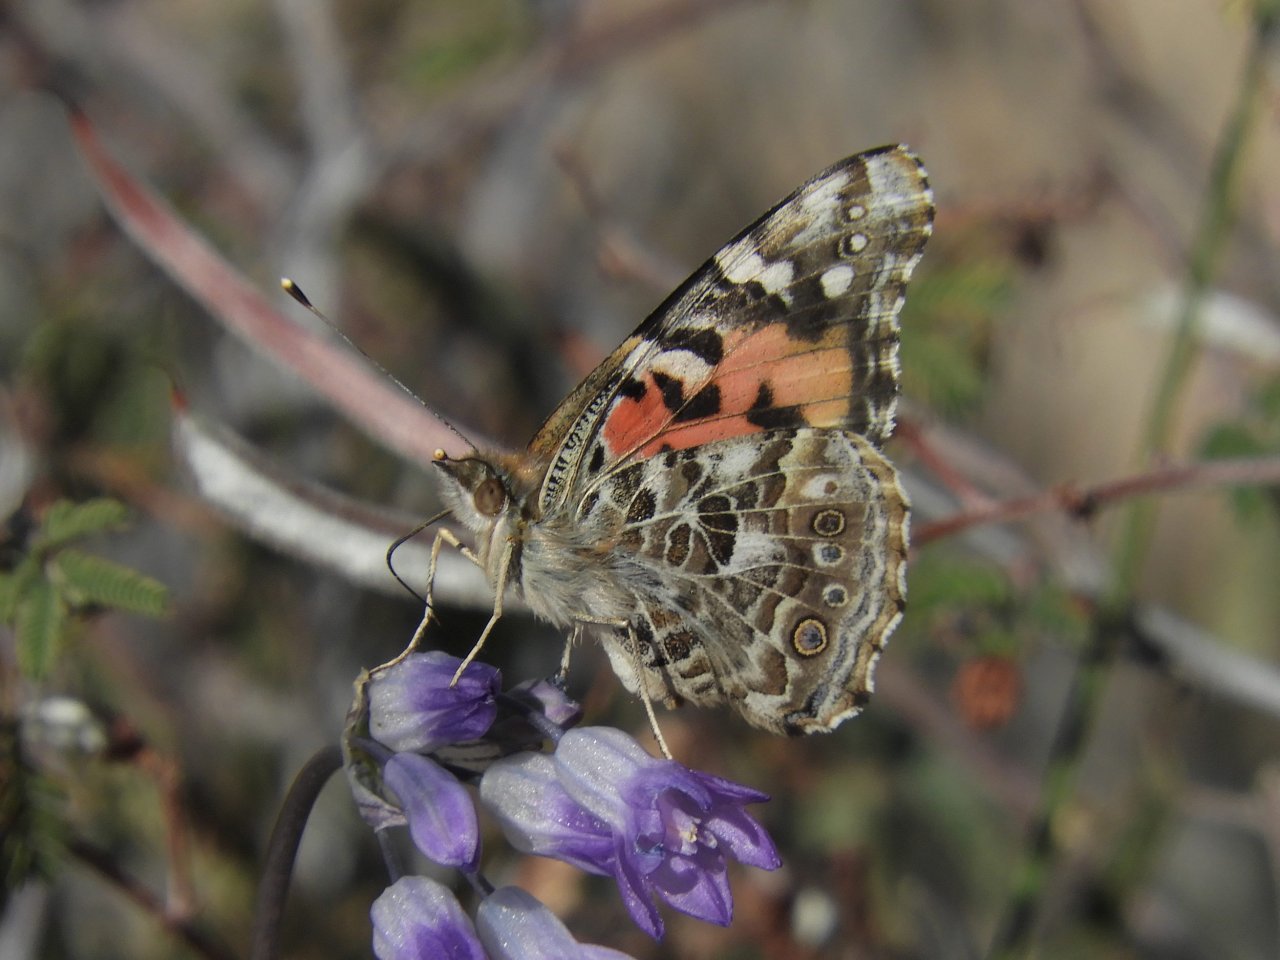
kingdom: Animalia
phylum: Arthropoda
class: Insecta
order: Lepidoptera
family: Nymphalidae
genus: Vanessa
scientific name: Vanessa cardui
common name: Painted Lady
